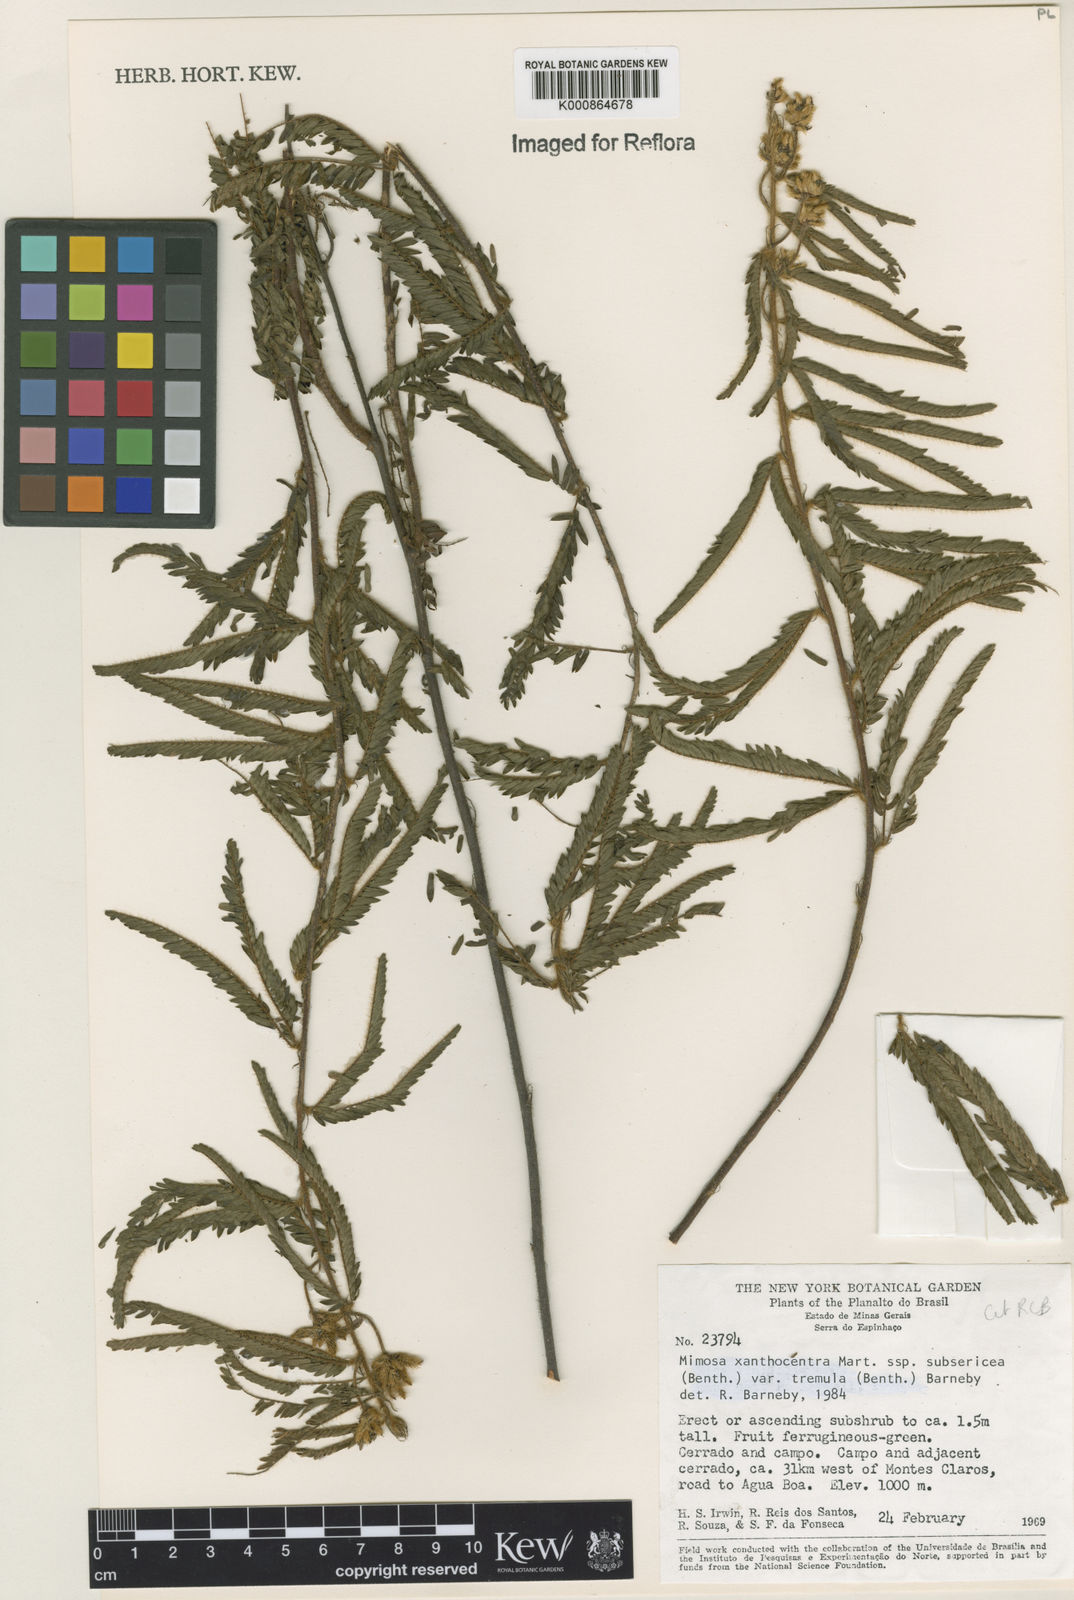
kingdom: Plantae
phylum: Tracheophyta
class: Magnoliopsida
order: Fabales
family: Fabaceae
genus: Mimosa
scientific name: Mimosa xanthocentra
